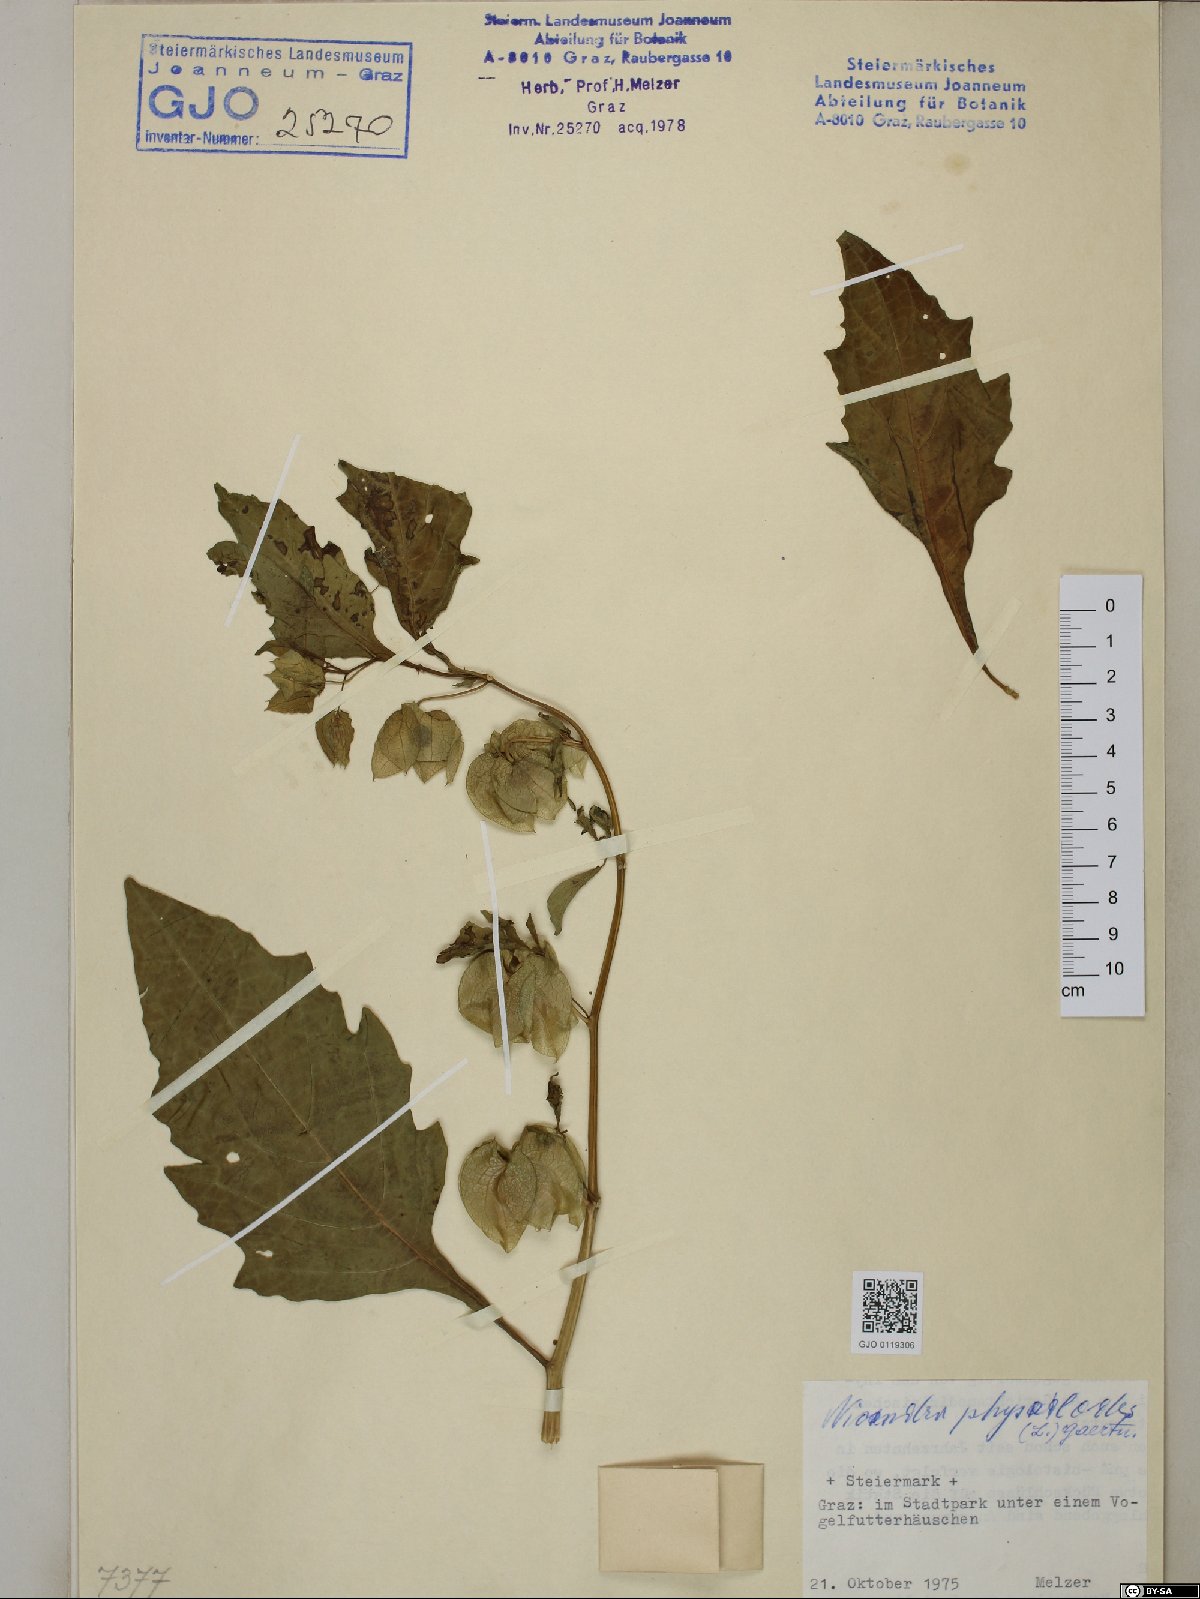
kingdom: Plantae
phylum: Tracheophyta
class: Magnoliopsida
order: Solanales
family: Solanaceae
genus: Nicandra
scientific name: Nicandra physalodes
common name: Apple-of-peru
